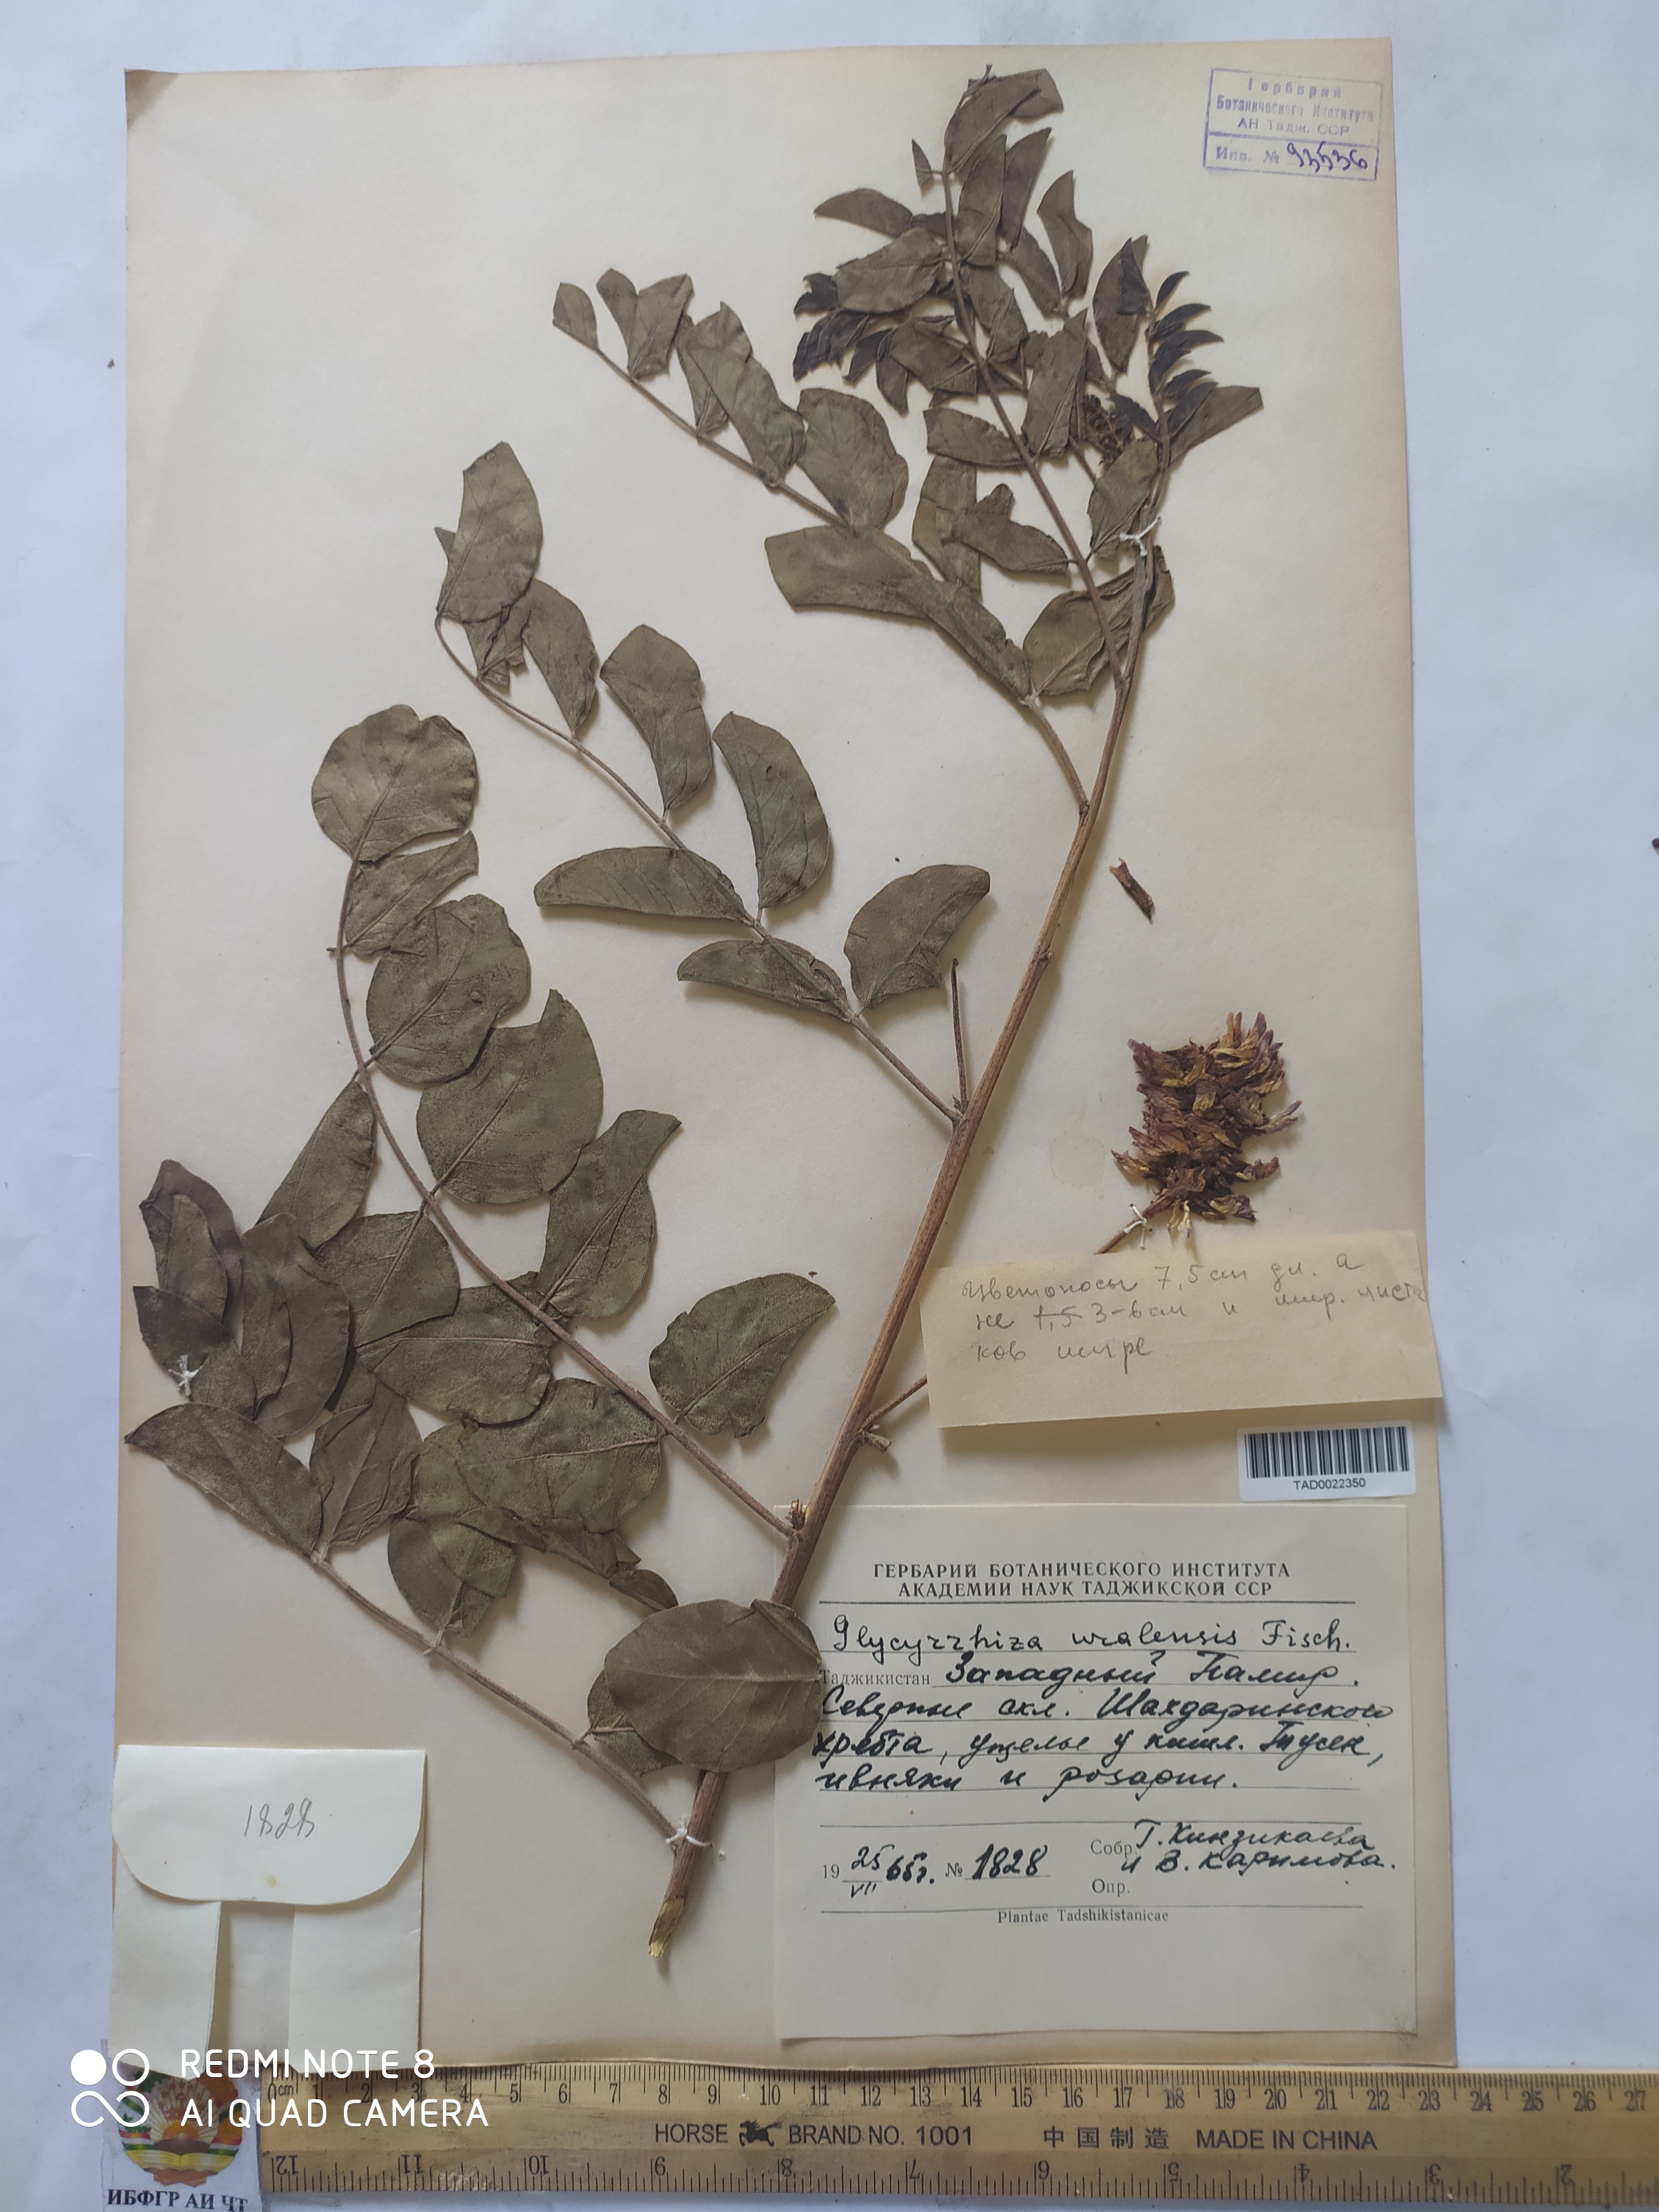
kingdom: Plantae
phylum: Tracheophyta
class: Magnoliopsida
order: Fabales
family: Fabaceae
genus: Glycyrrhiza
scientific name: Glycyrrhiza uralensis
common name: Chinese licorice
